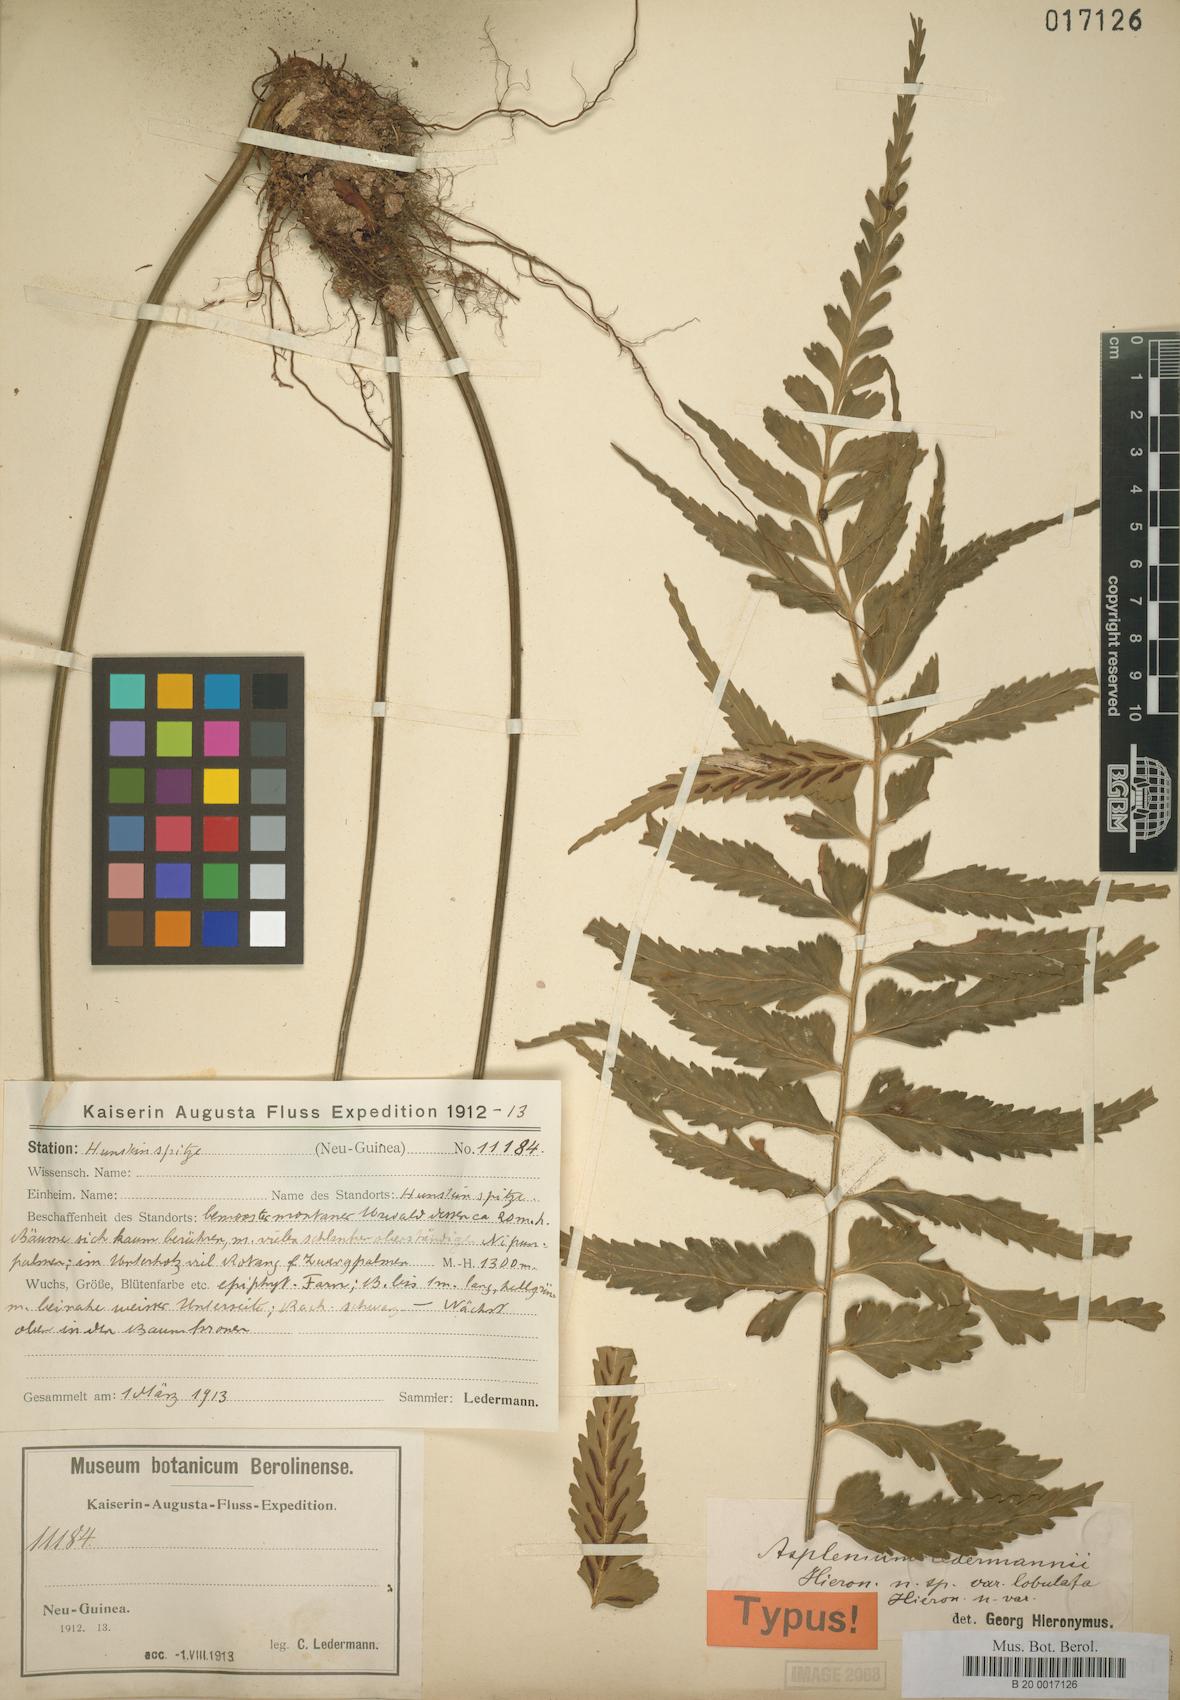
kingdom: Plantae
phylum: Tracheophyta
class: Polypodiopsida
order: Polypodiales
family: Aspleniaceae
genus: Asplenium
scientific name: Asplenium lobulatum
